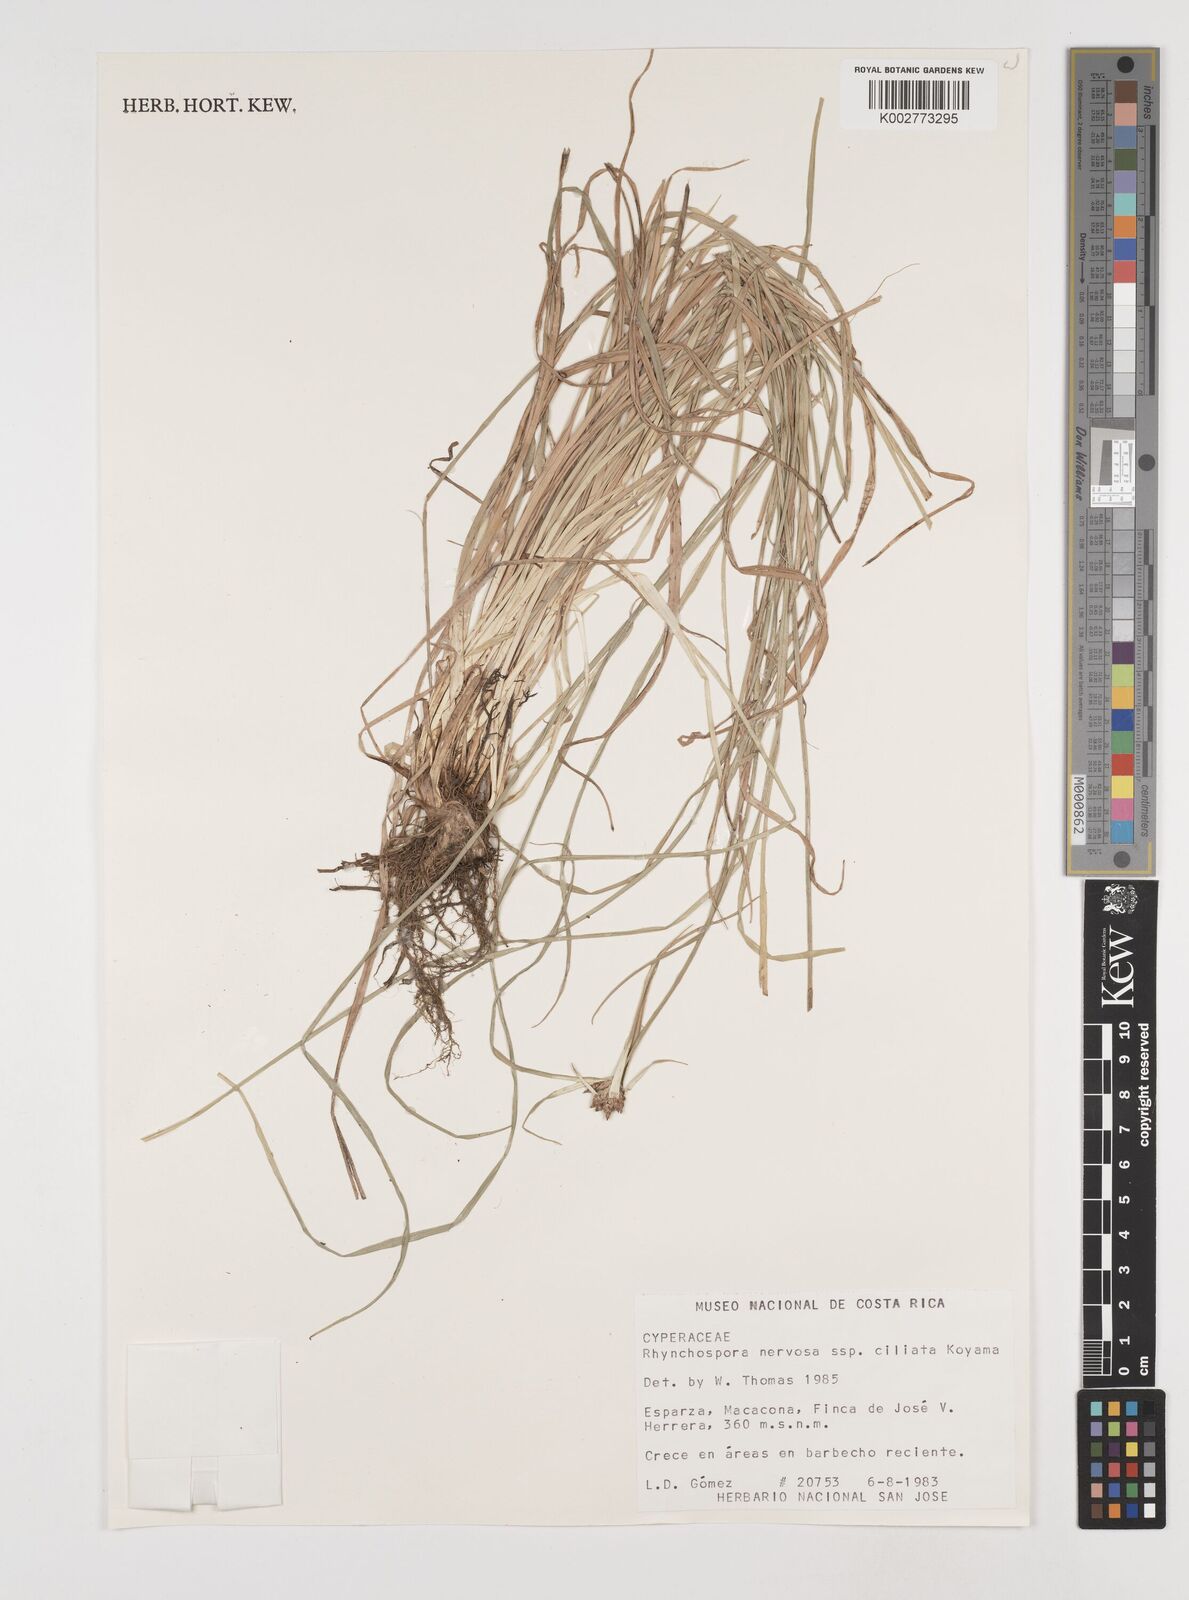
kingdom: Plantae
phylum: Tracheophyta
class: Liliopsida
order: Poales
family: Cyperaceae
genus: Rhynchospora
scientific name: Rhynchospora pura
